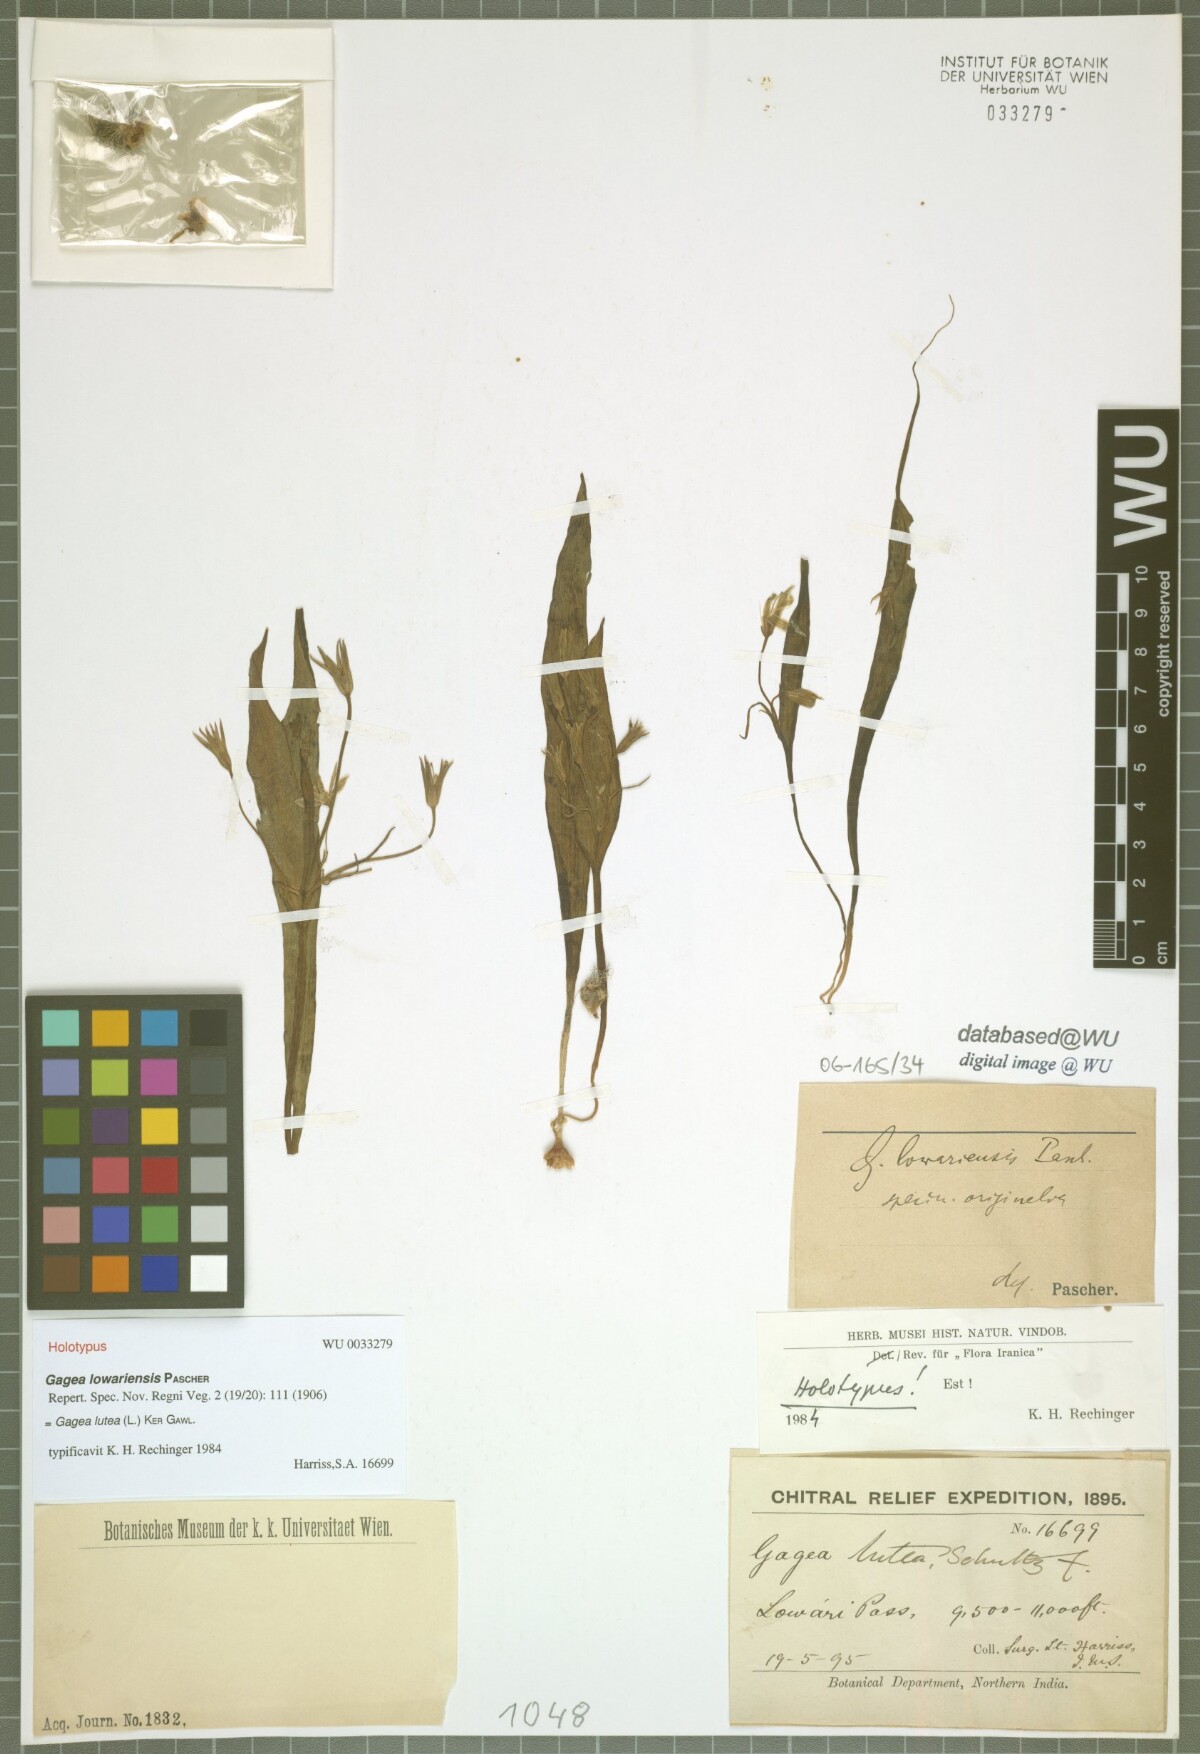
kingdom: Plantae
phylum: Tracheophyta
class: Liliopsida
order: Liliales
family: Liliaceae
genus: Gagea
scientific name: Gagea lutea
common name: Yellow star-of-bethlehem
